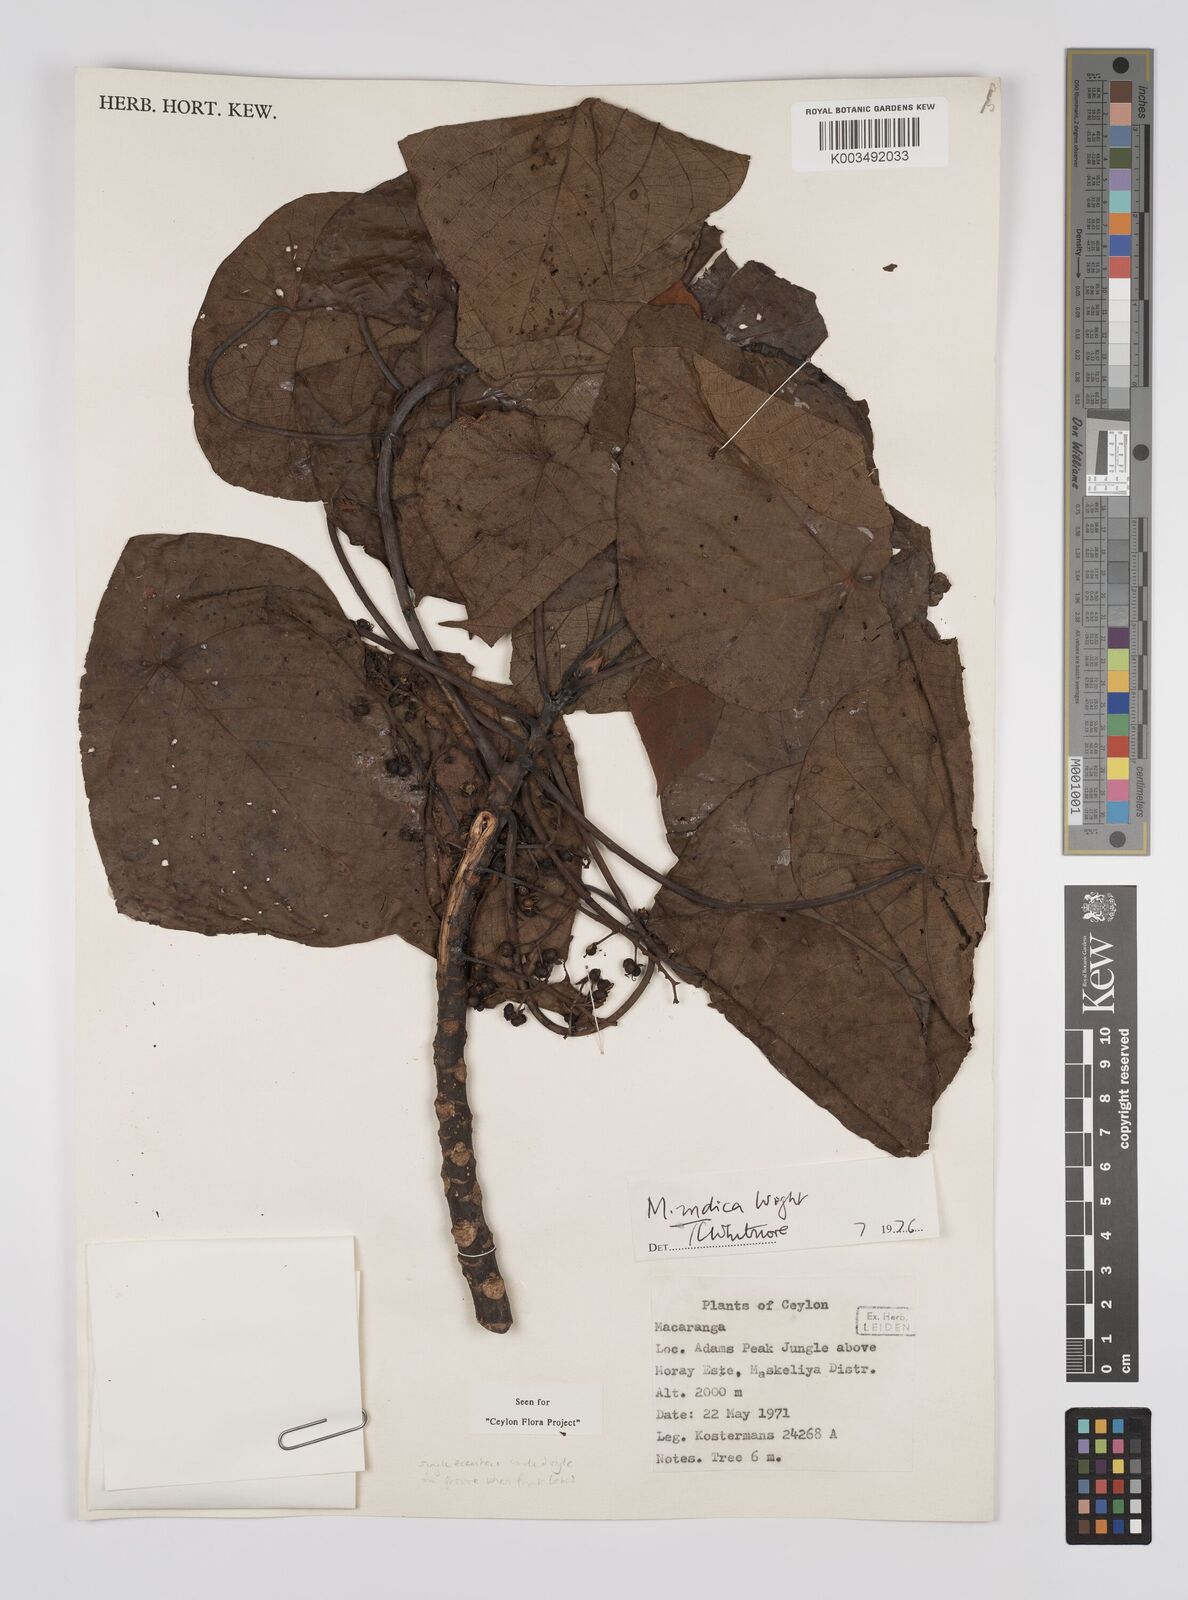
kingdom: Plantae
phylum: Tracheophyta
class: Magnoliopsida
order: Malpighiales
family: Euphorbiaceae
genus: Macaranga
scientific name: Macaranga indica
